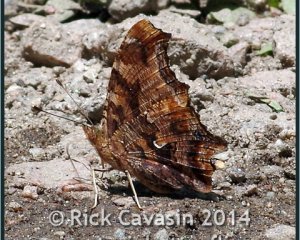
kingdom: Animalia
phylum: Arthropoda
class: Insecta
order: Lepidoptera
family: Nymphalidae
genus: Polygonia
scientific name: Polygonia comma
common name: Eastern Comma
